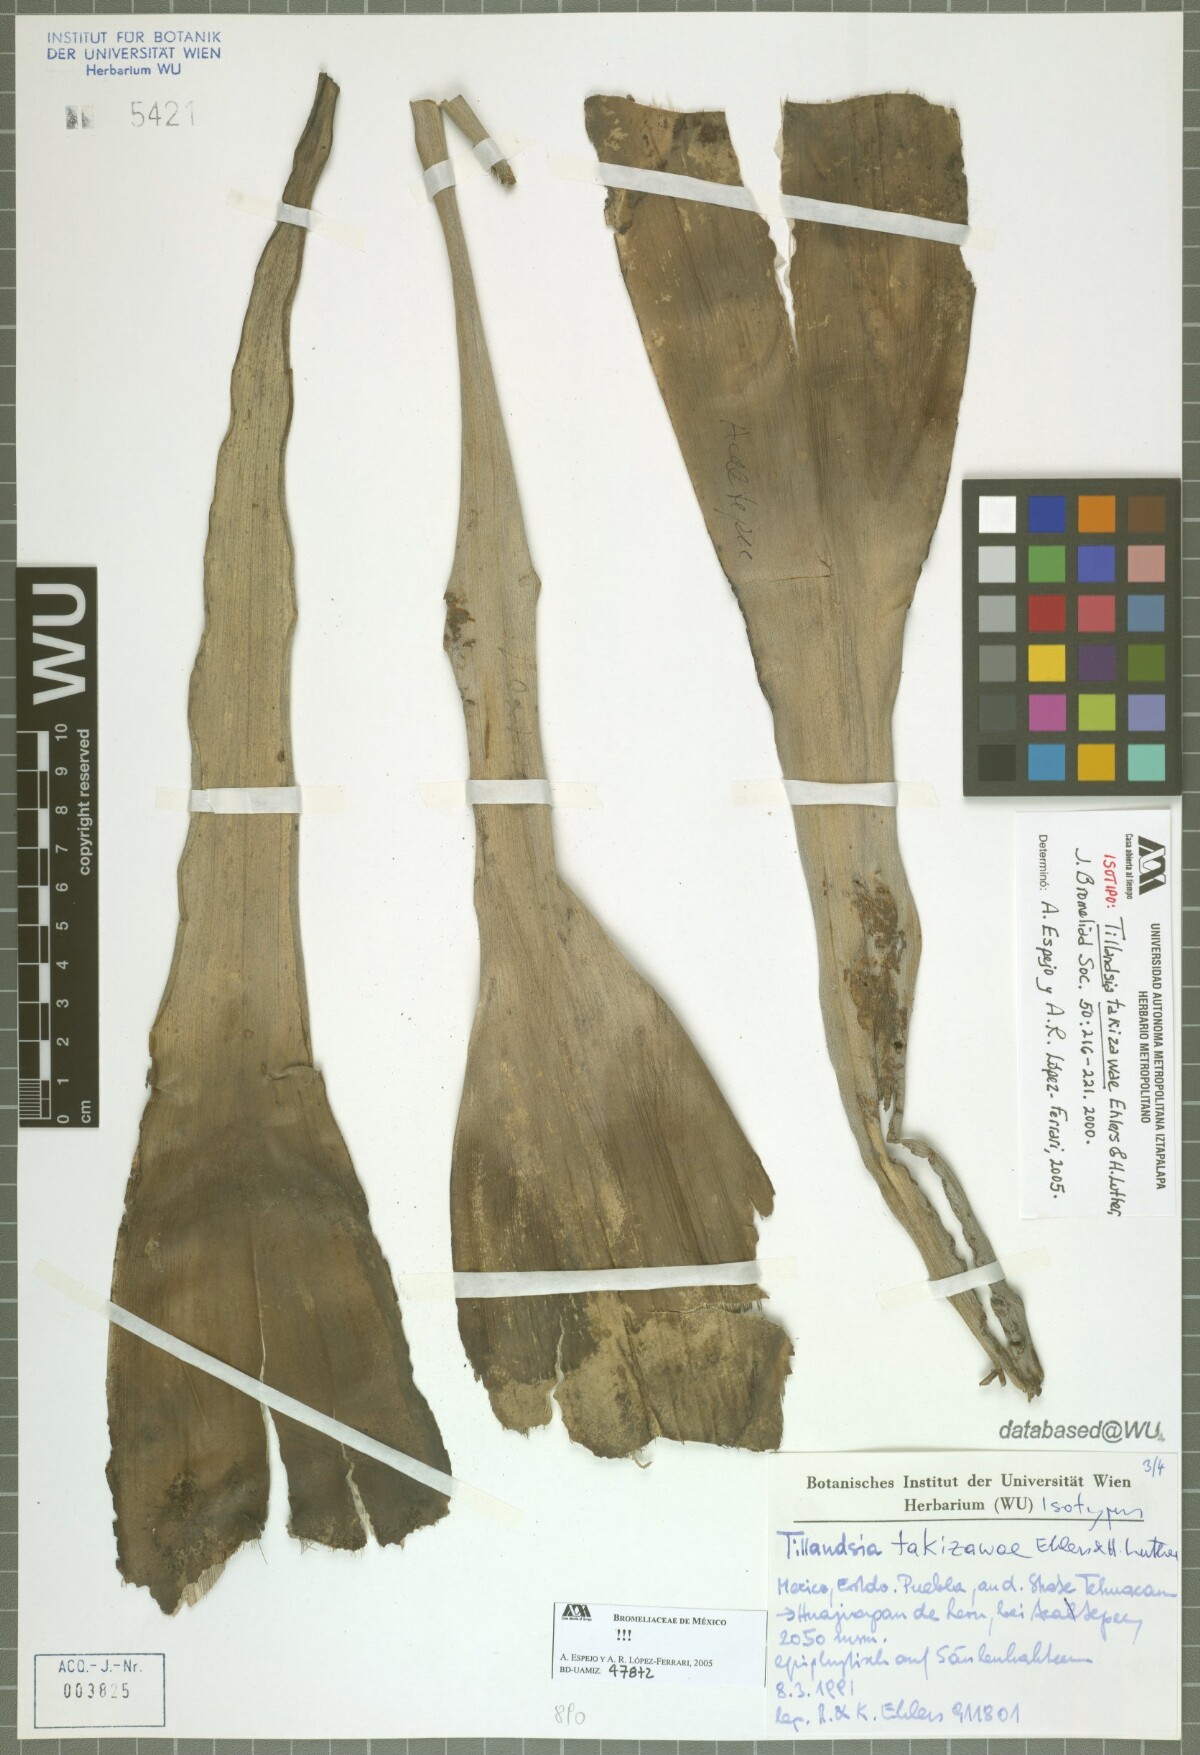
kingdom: Plantae
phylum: Tracheophyta
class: Liliopsida
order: Poales
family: Bromeliaceae
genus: Tillandsia
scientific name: Tillandsia takizawae
